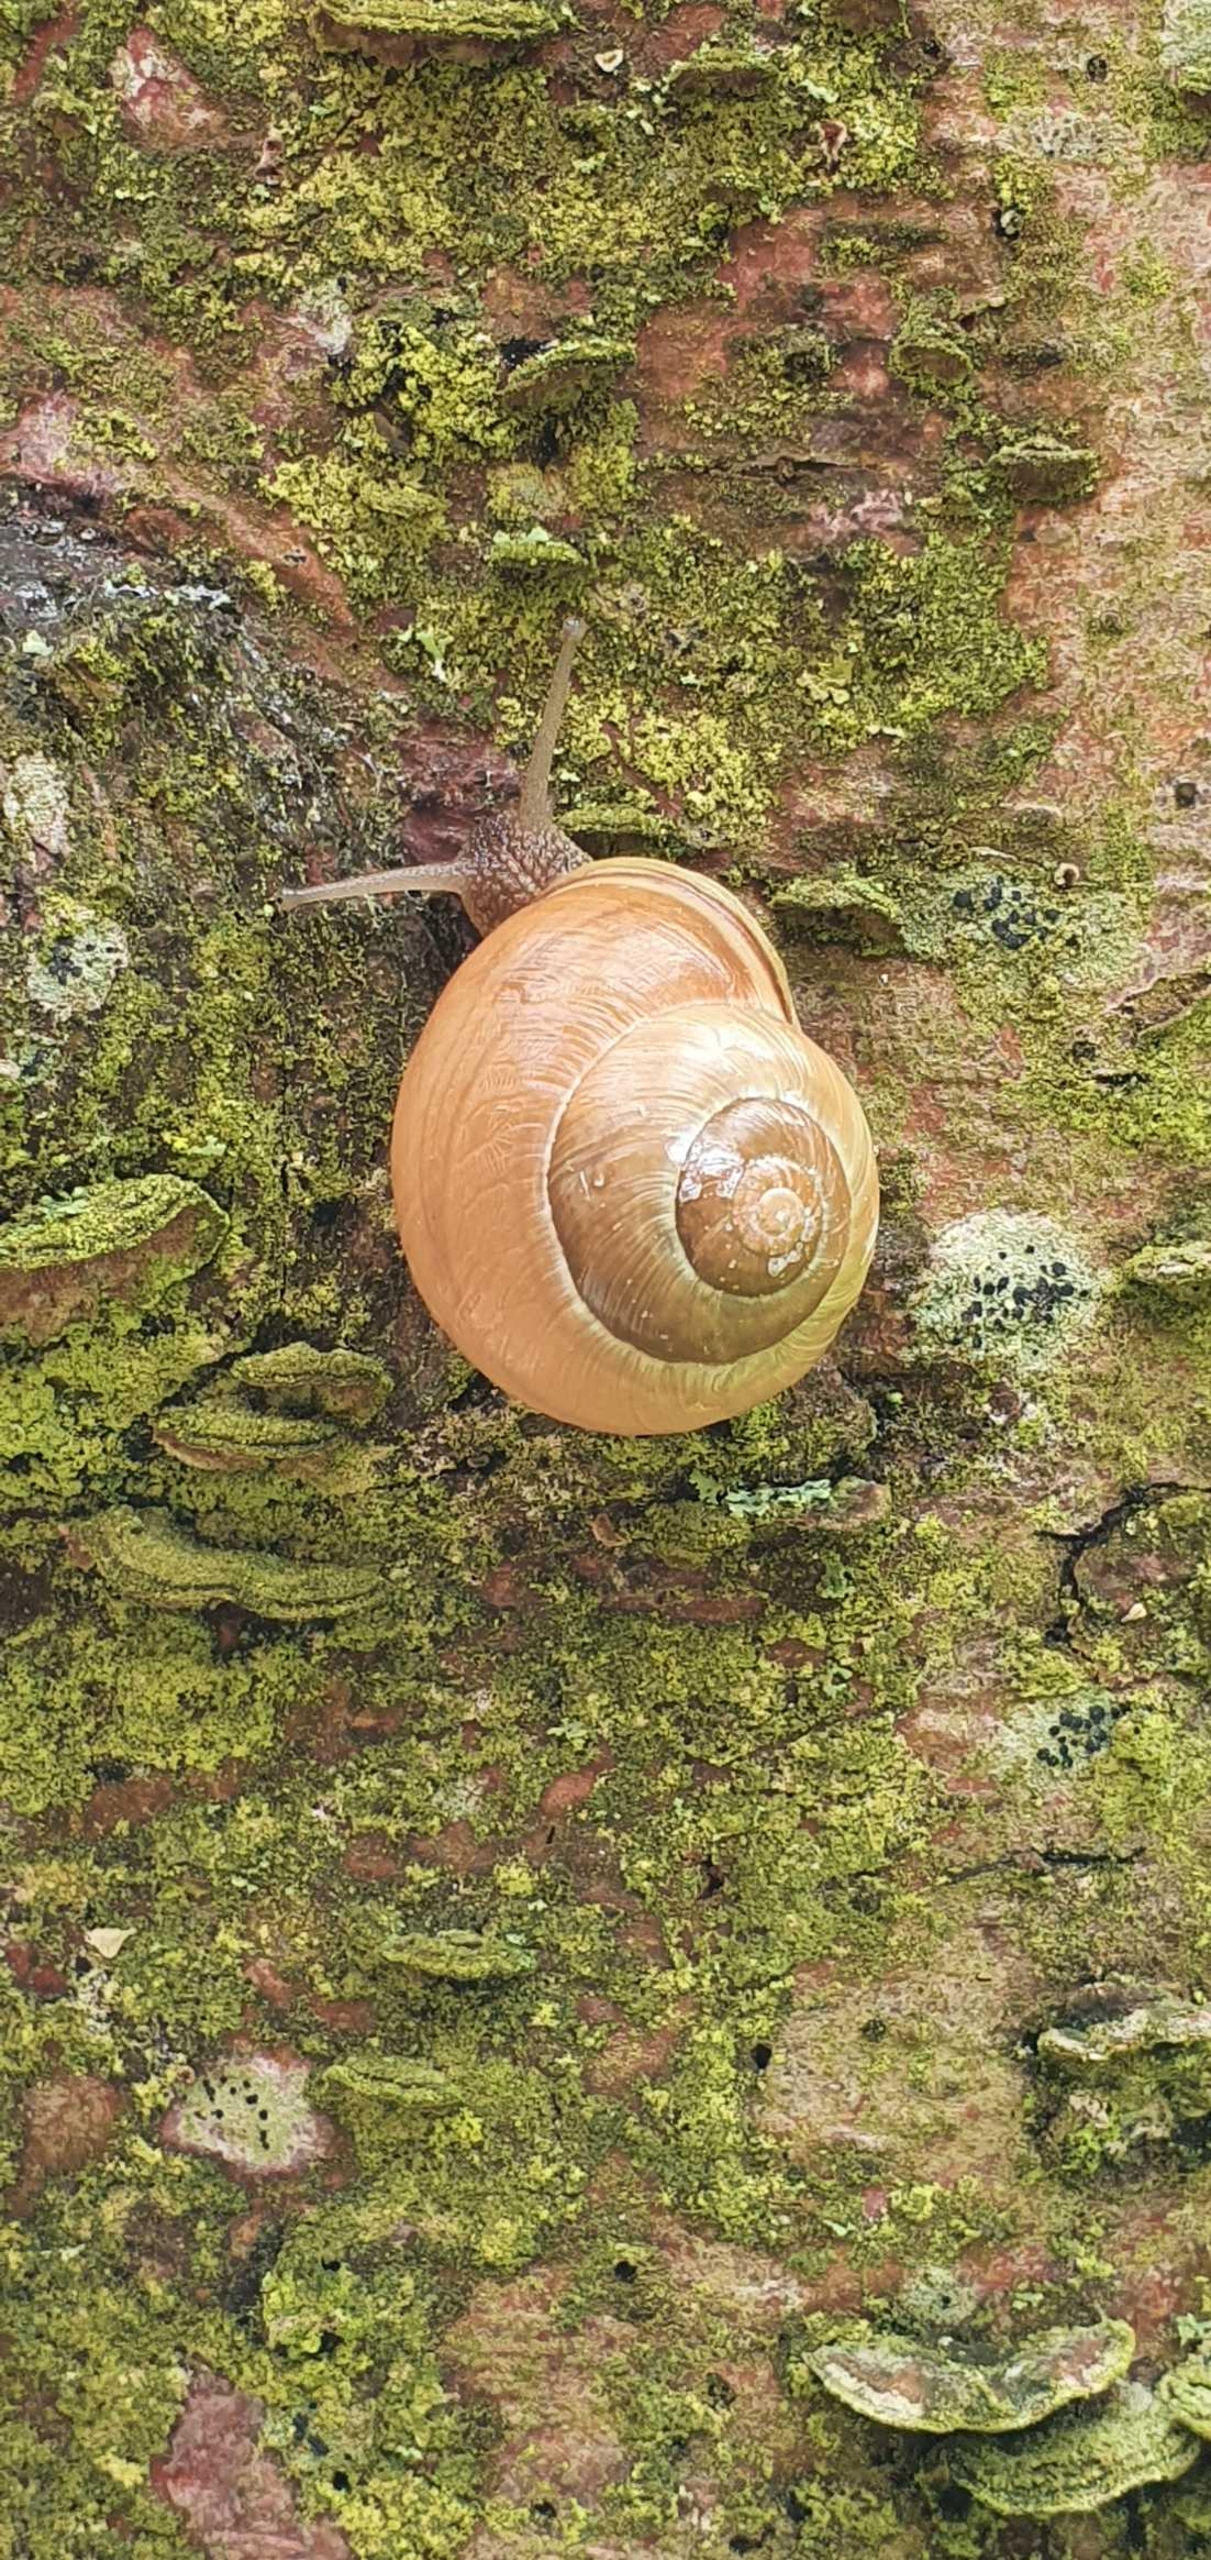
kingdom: Animalia
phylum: Mollusca
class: Gastropoda
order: Stylommatophora
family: Helicidae
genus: Cepaea
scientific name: Cepaea hortensis
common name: Havesnegl
